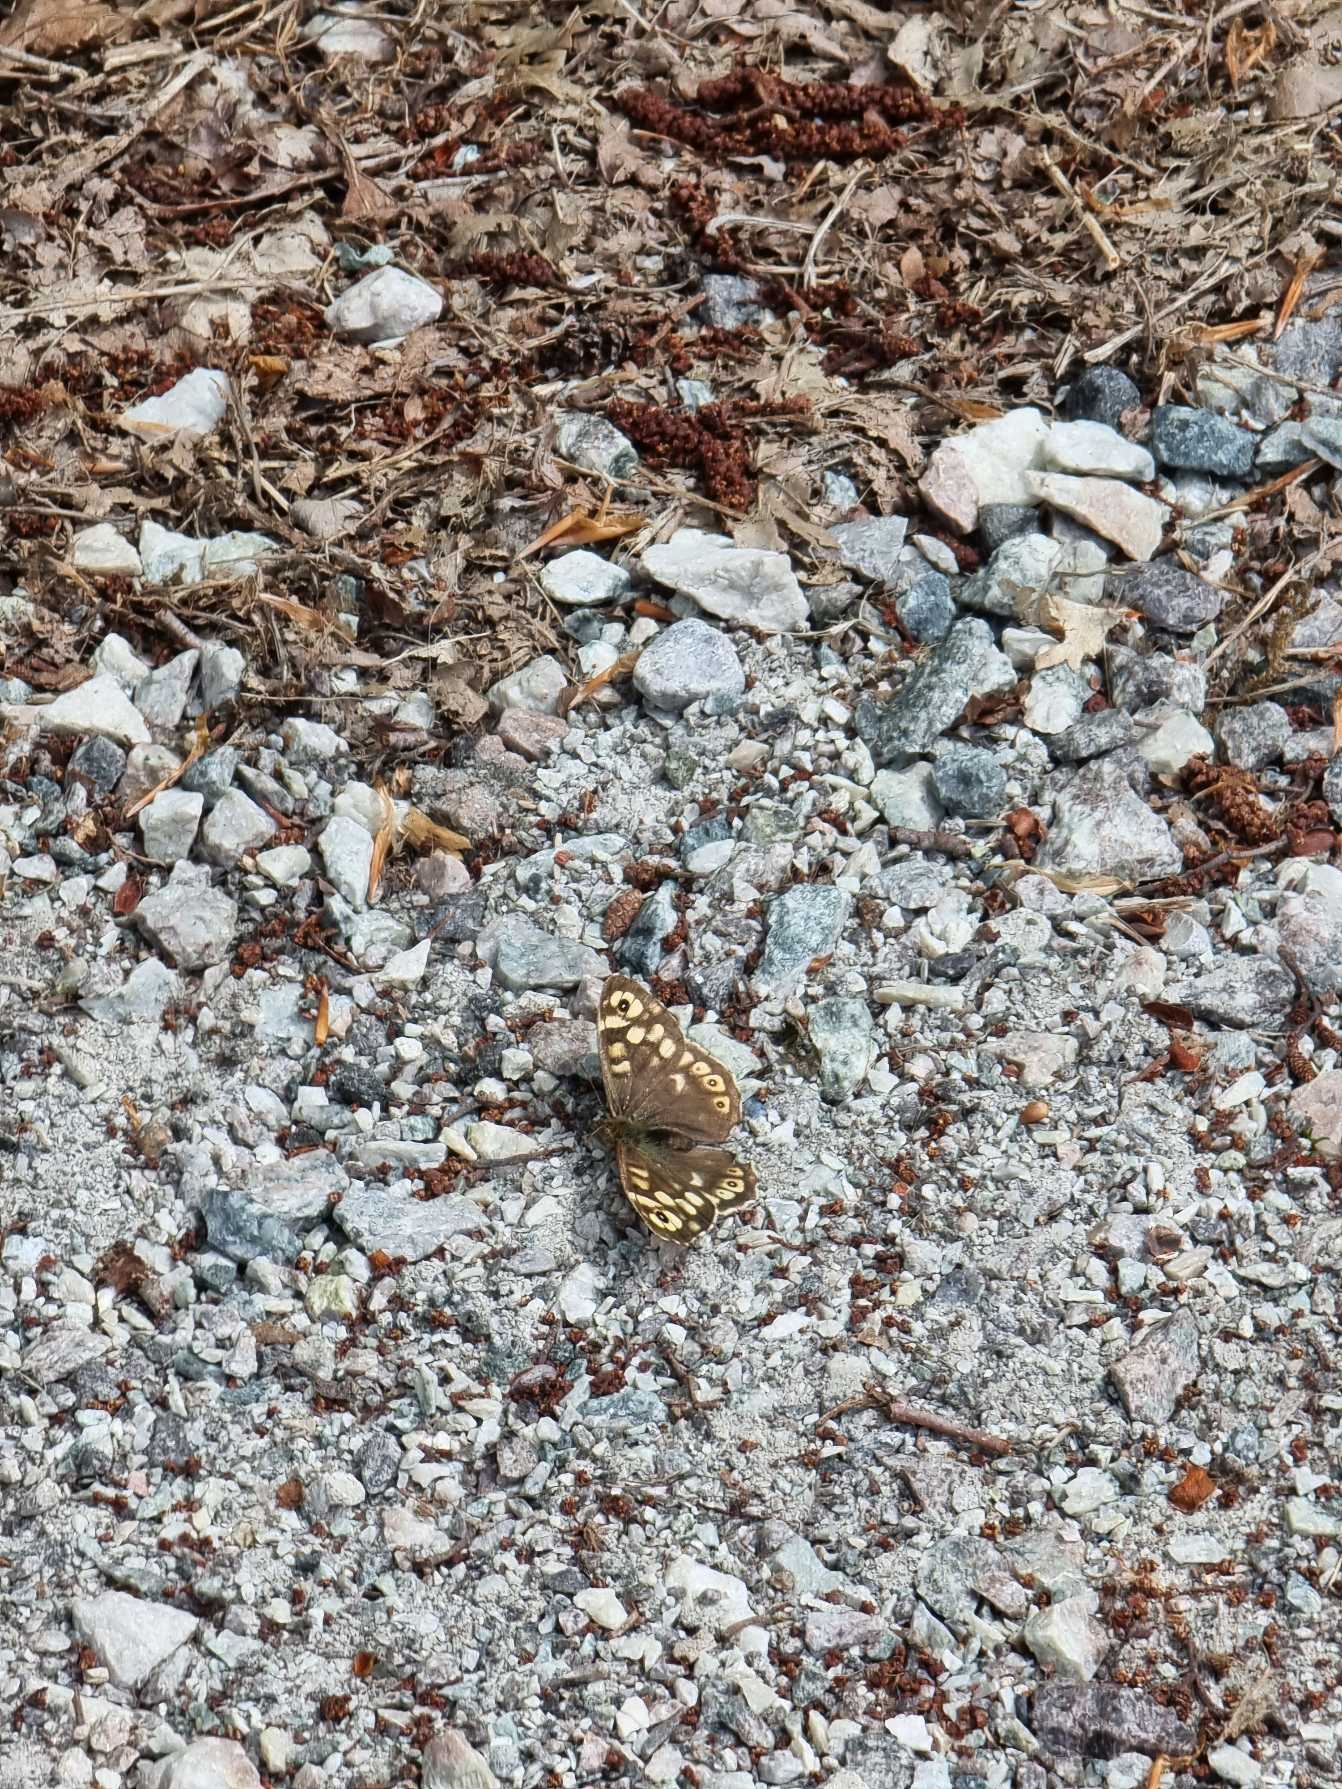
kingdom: Animalia
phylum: Arthropoda
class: Insecta
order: Lepidoptera
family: Nymphalidae
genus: Pararge
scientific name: Pararge aegeria
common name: Skovrandøje
